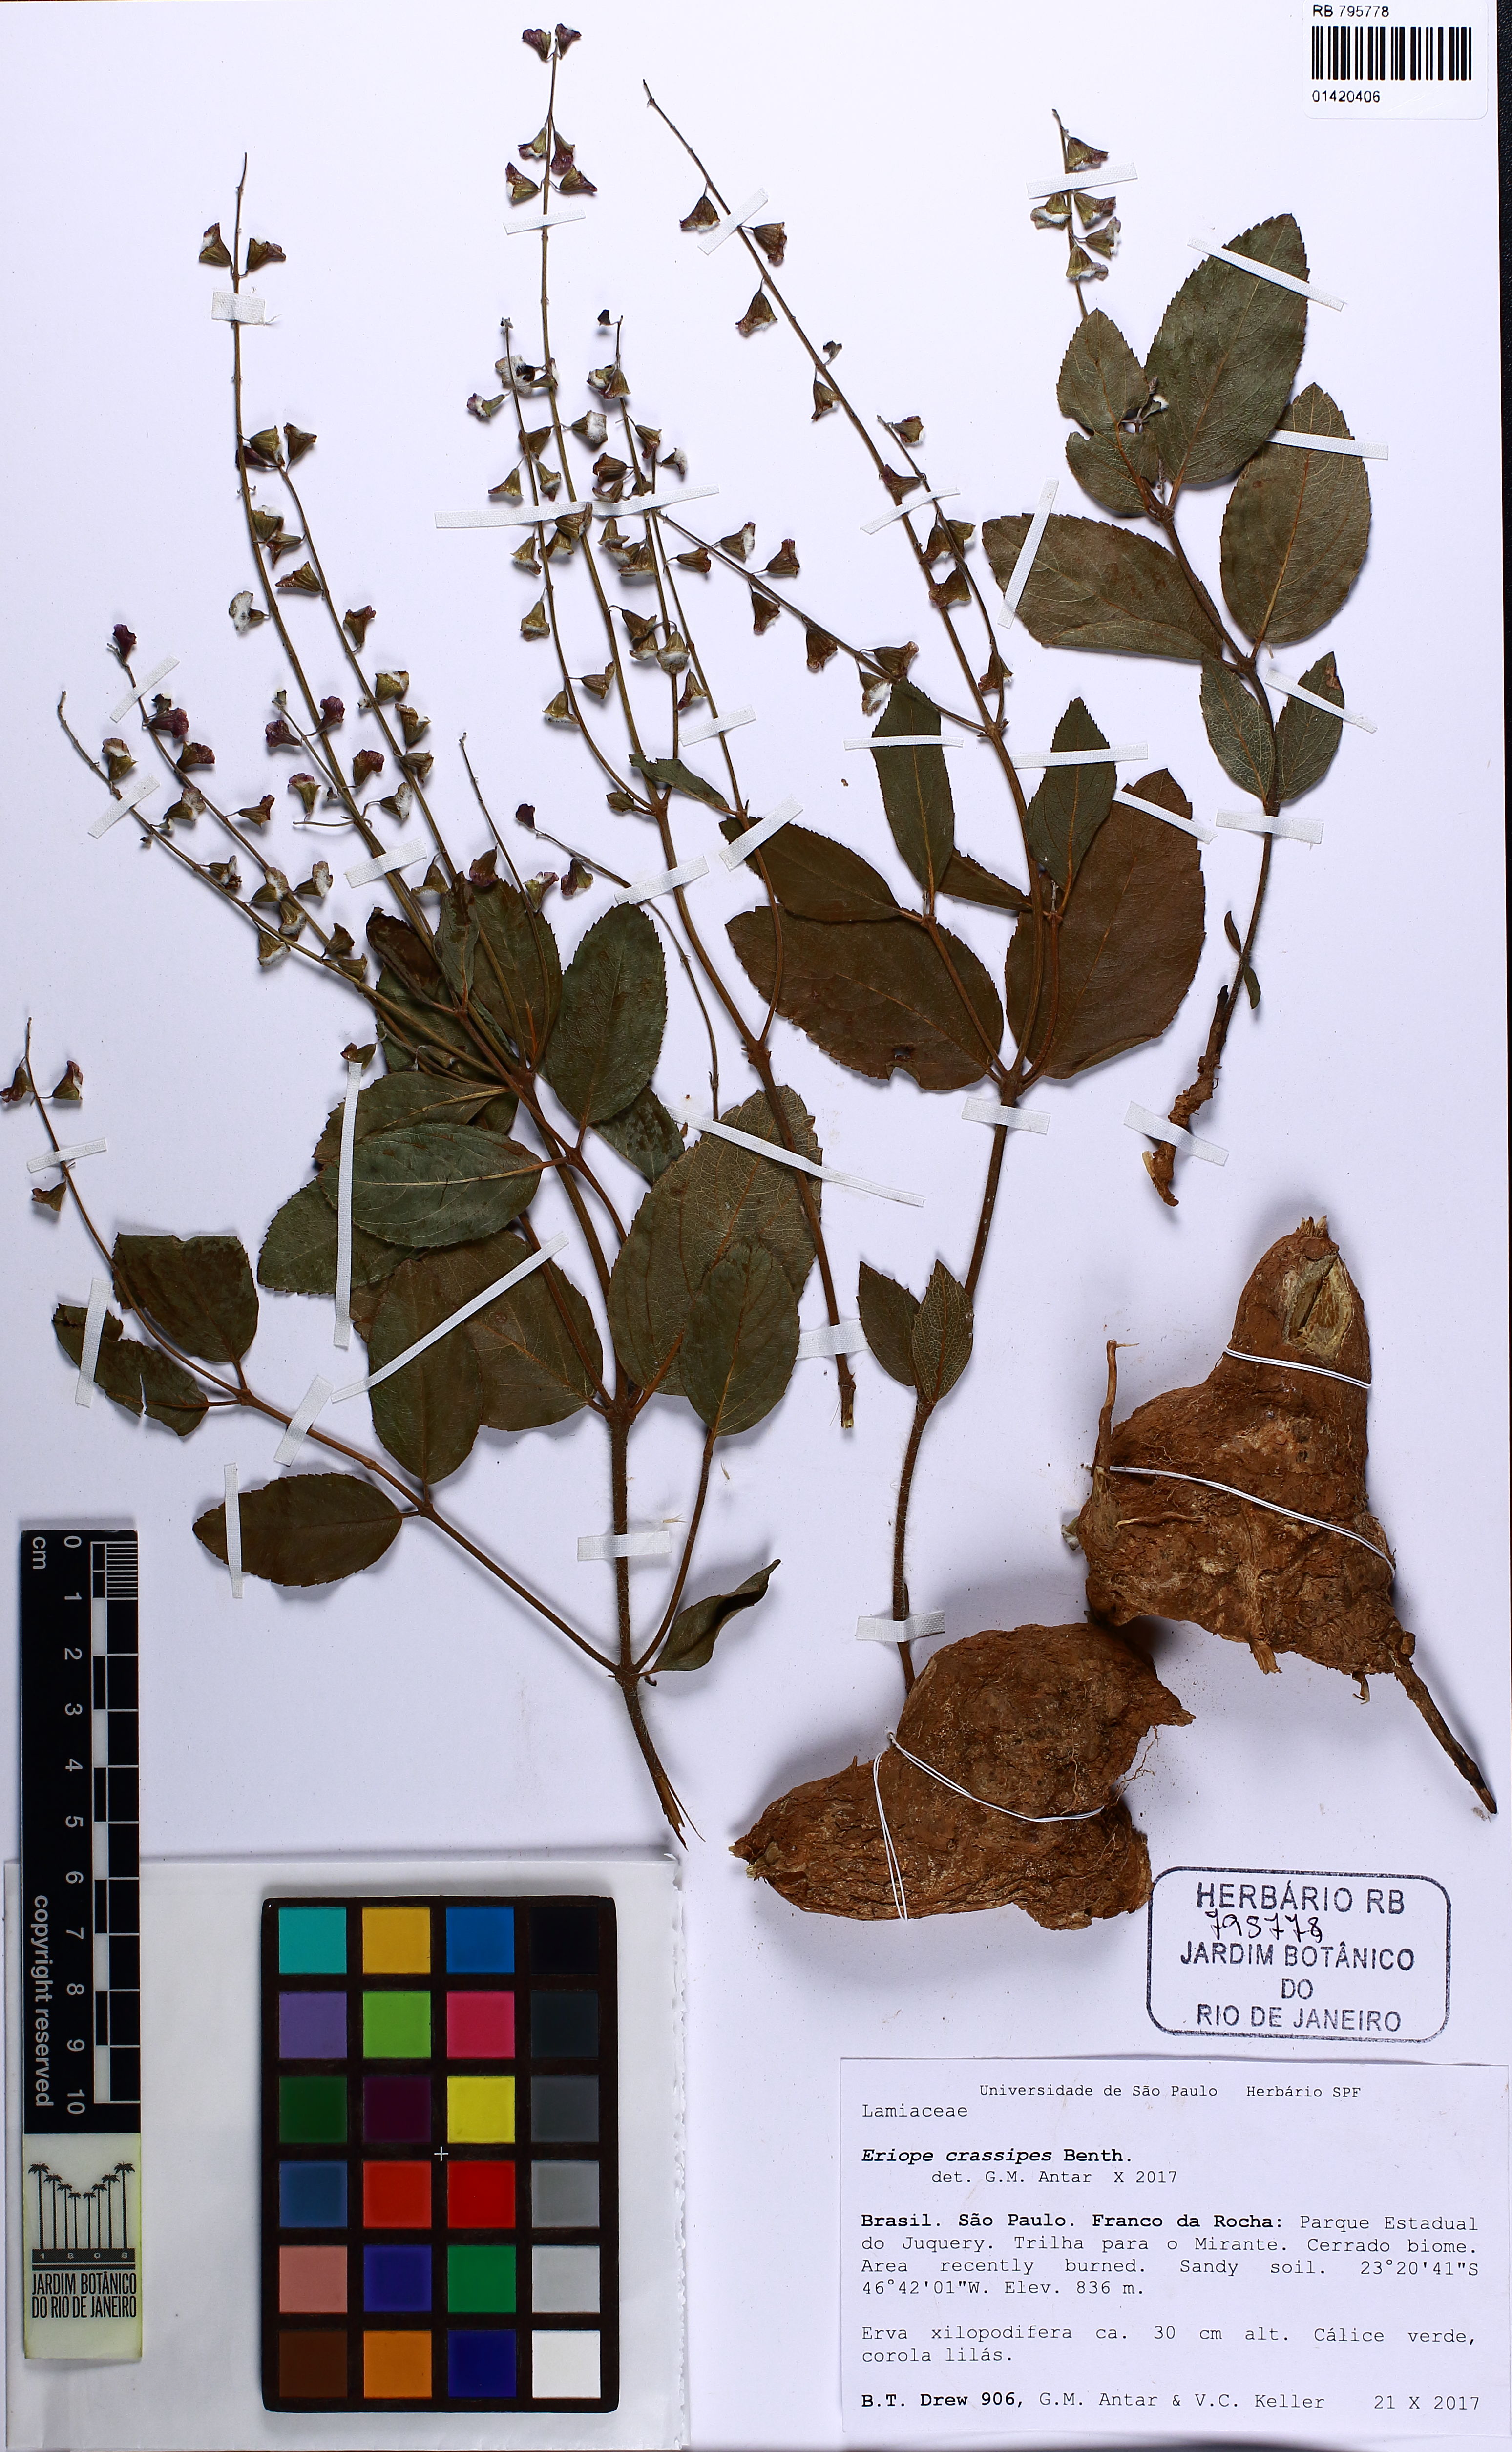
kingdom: Plantae
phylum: Tracheophyta
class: Magnoliopsida
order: Lamiales
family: Lamiaceae
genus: Eriope
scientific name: Eriope crassipes
